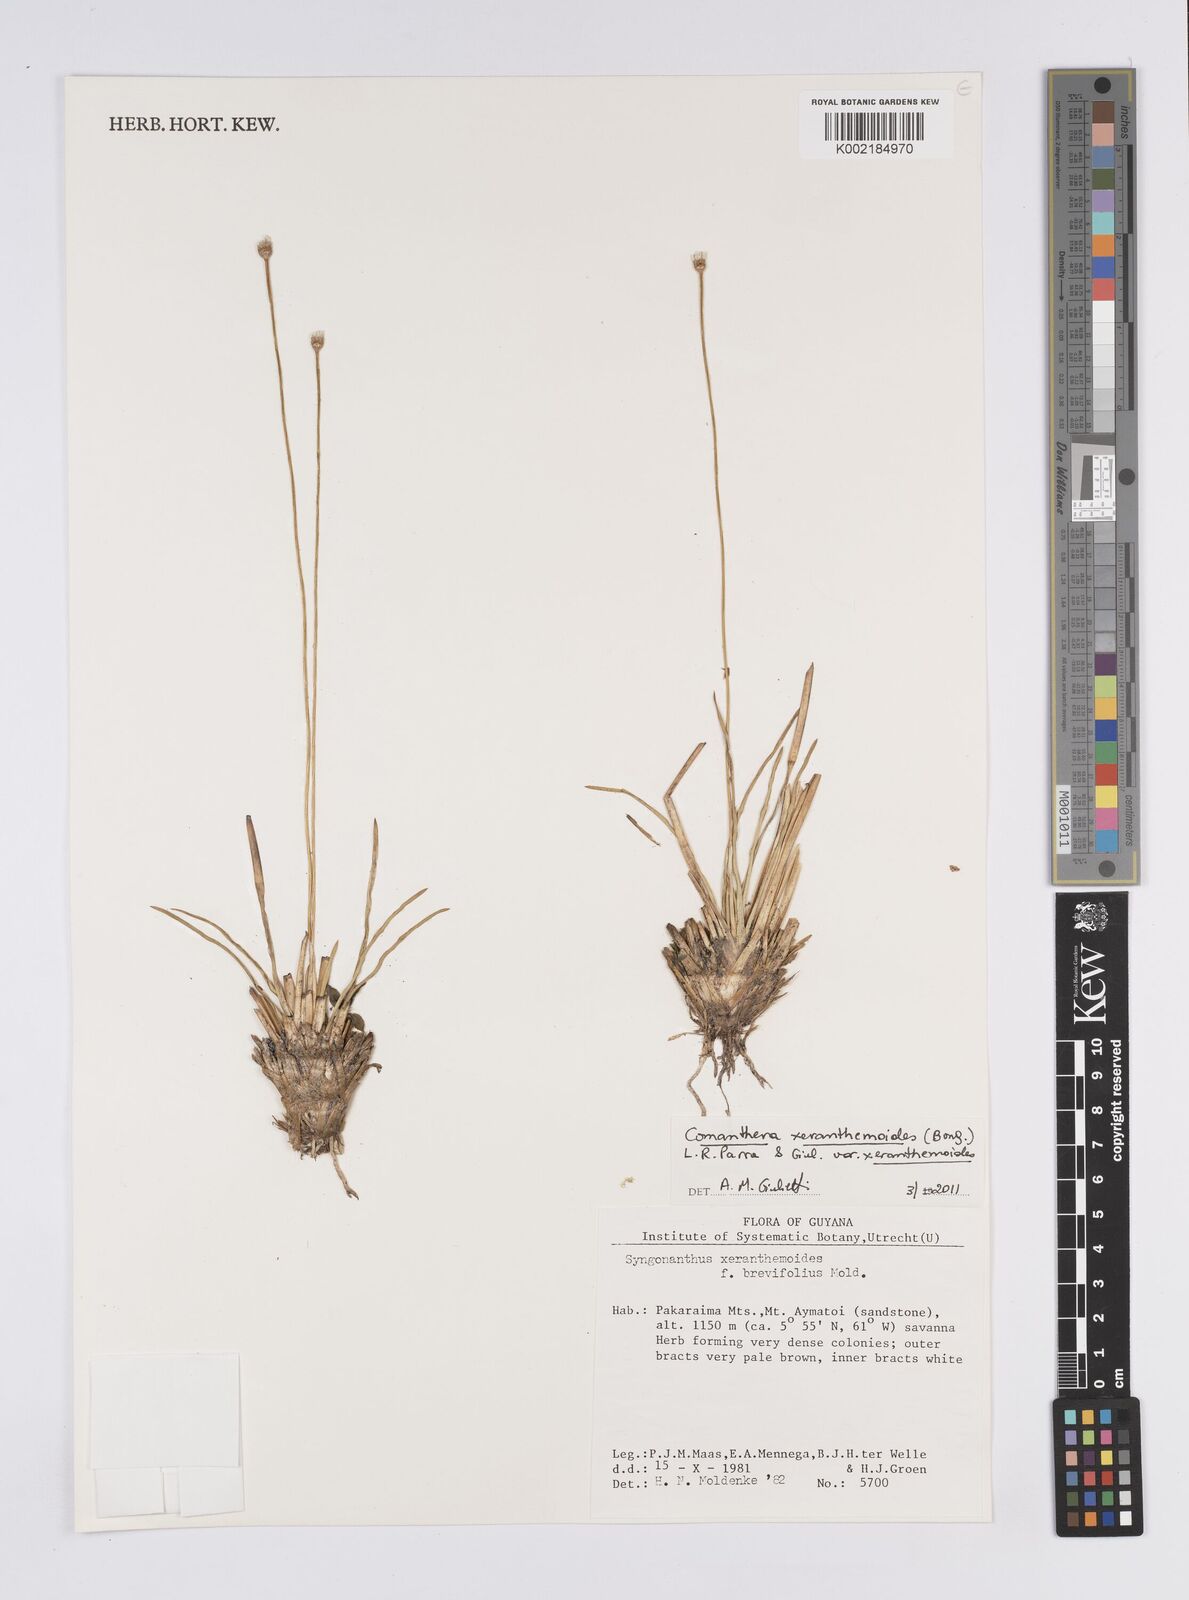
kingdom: Plantae
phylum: Tracheophyta
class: Liliopsida
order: Poales
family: Eriocaulaceae
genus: Comanthera
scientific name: Comanthera xeranthemoides
